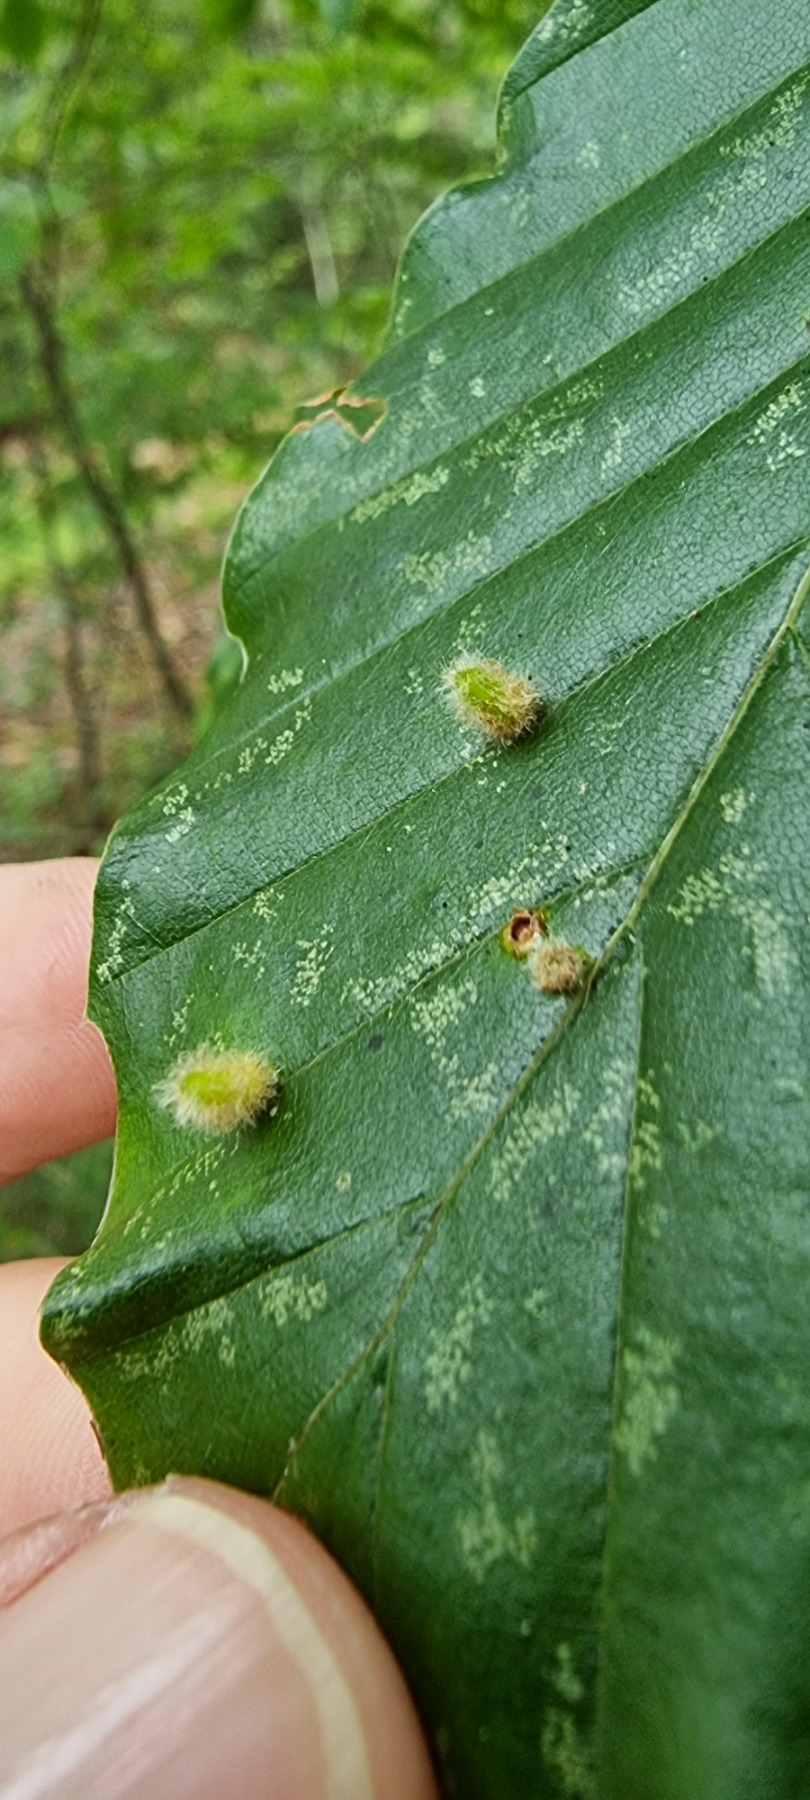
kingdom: Animalia
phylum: Arthropoda
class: Insecta
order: Diptera
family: Cecidomyiidae
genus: Hartigiola
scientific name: Hartigiola annulipes
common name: Skovtroldegalmyg
